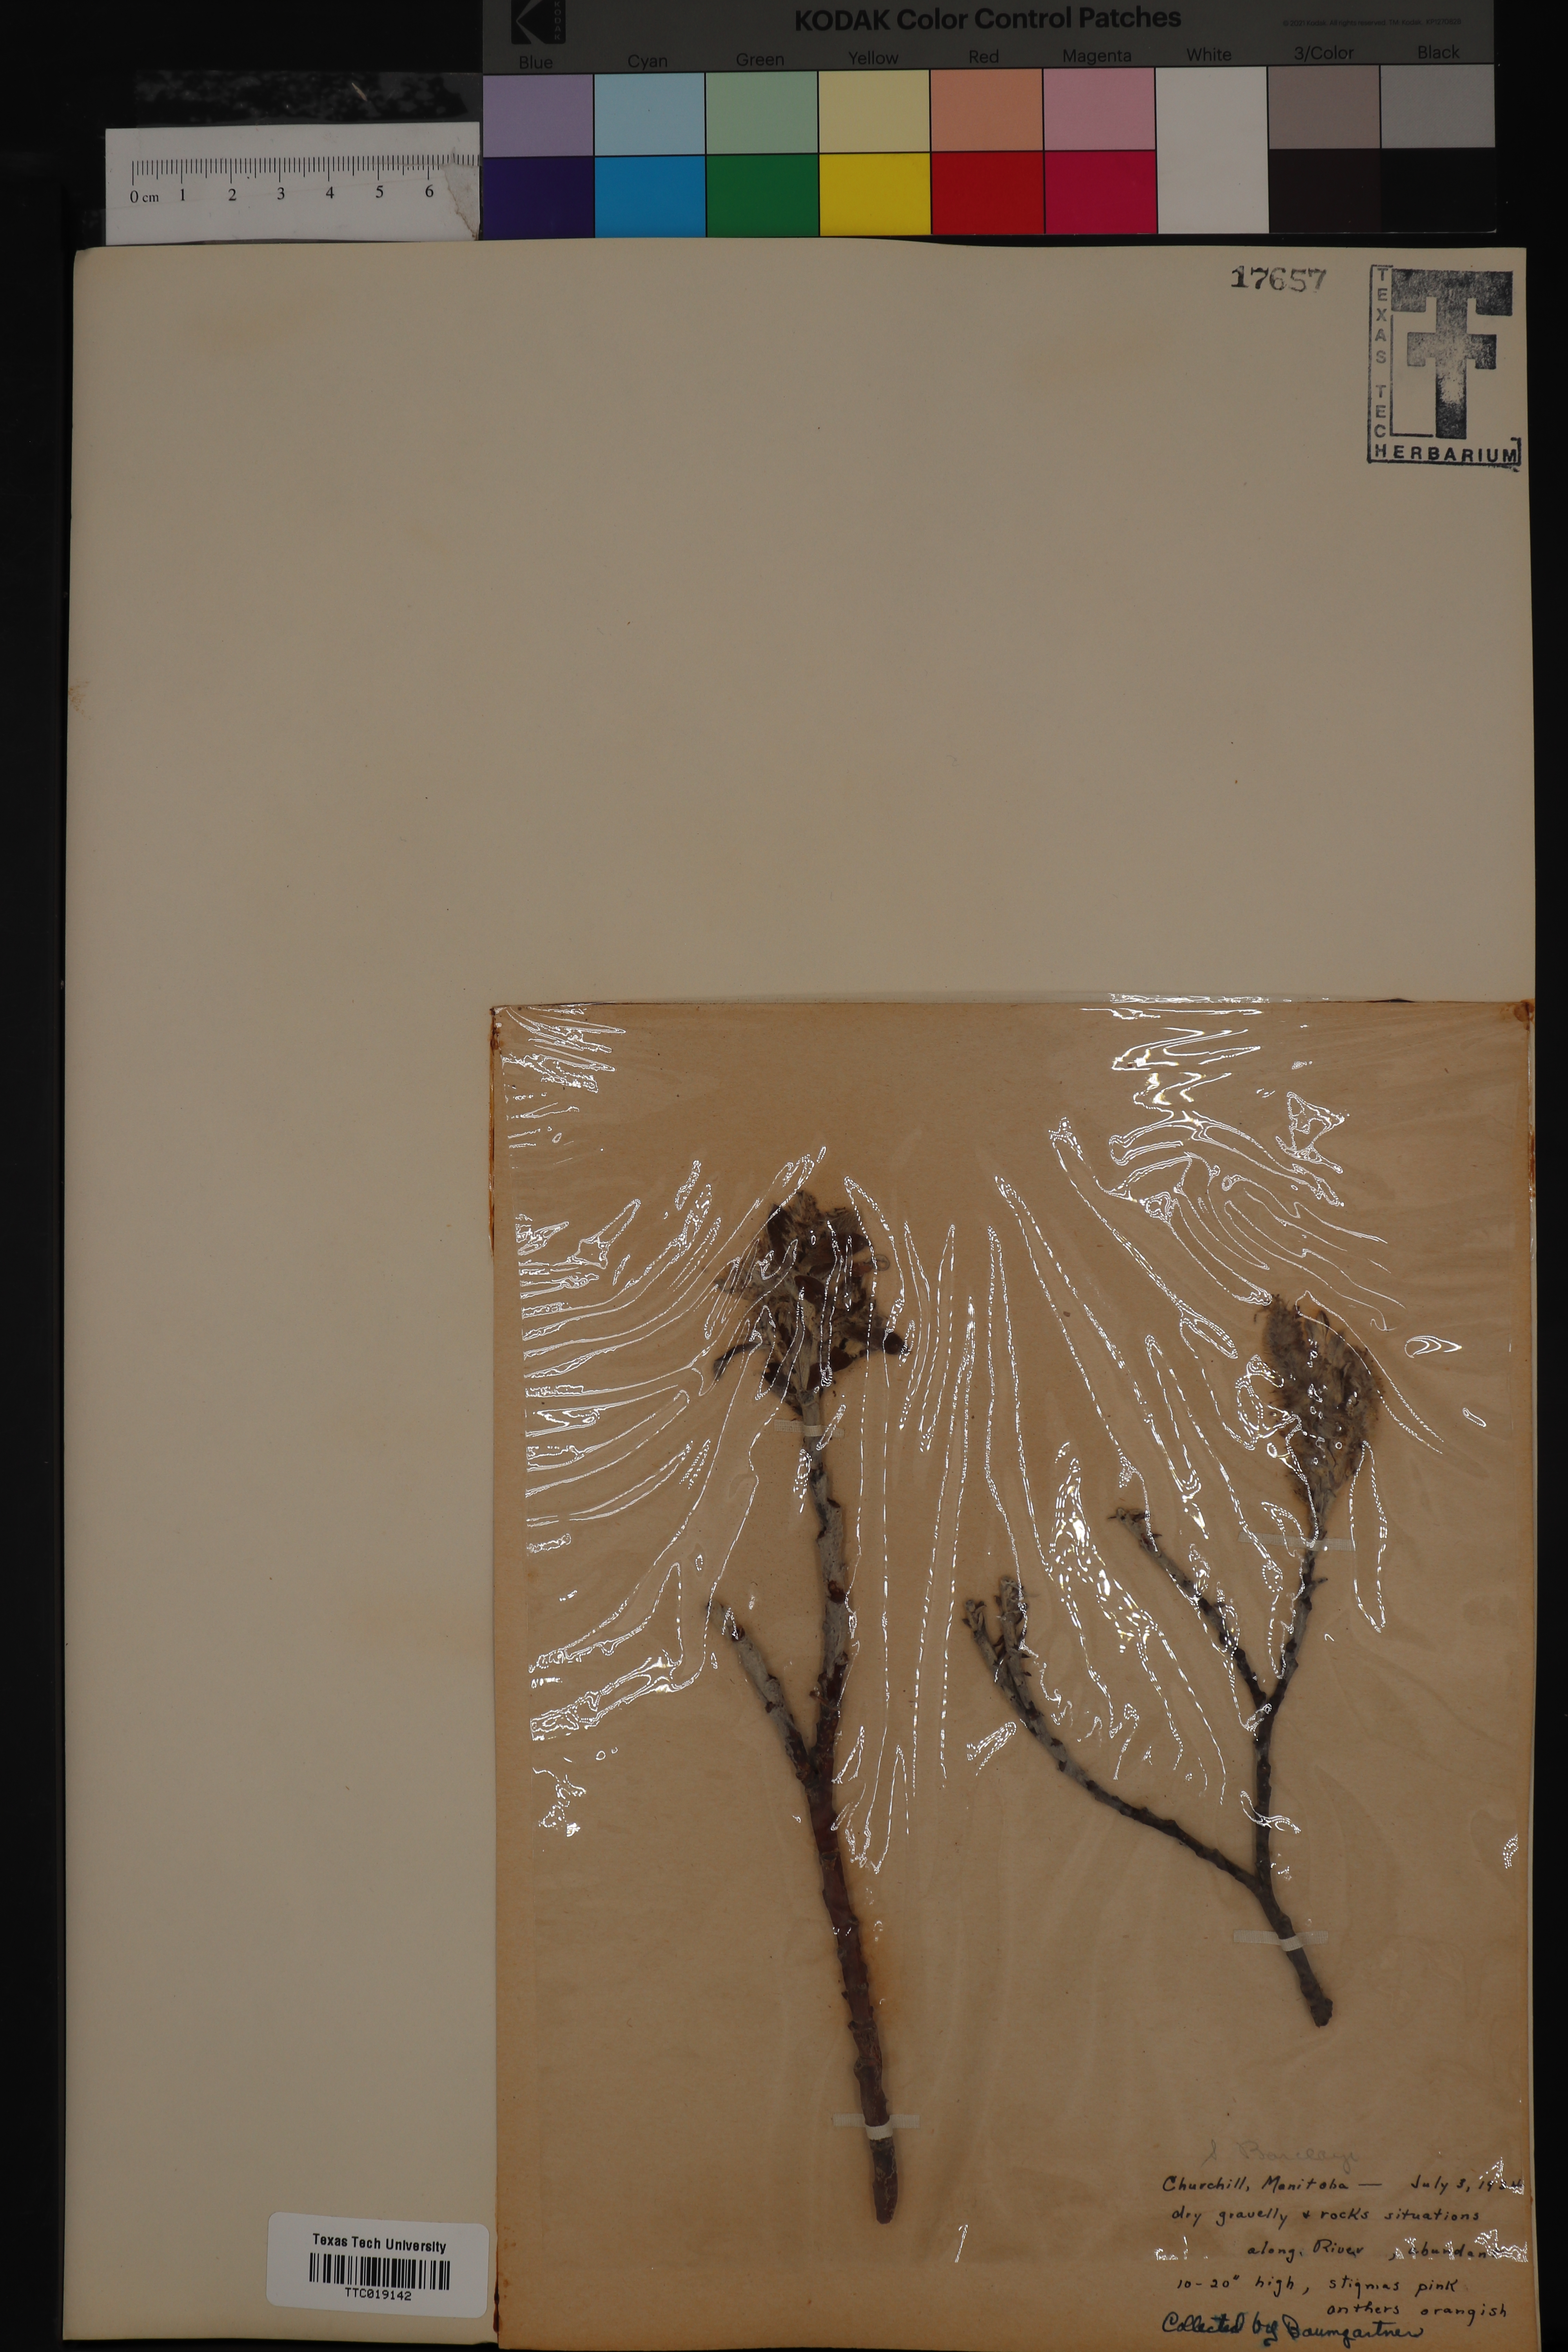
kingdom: Plantae
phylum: Tracheophyta
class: Magnoliopsida
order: Malpighiales
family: Salicaceae
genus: Salix
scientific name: Salix barclayi
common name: Mountain willow
